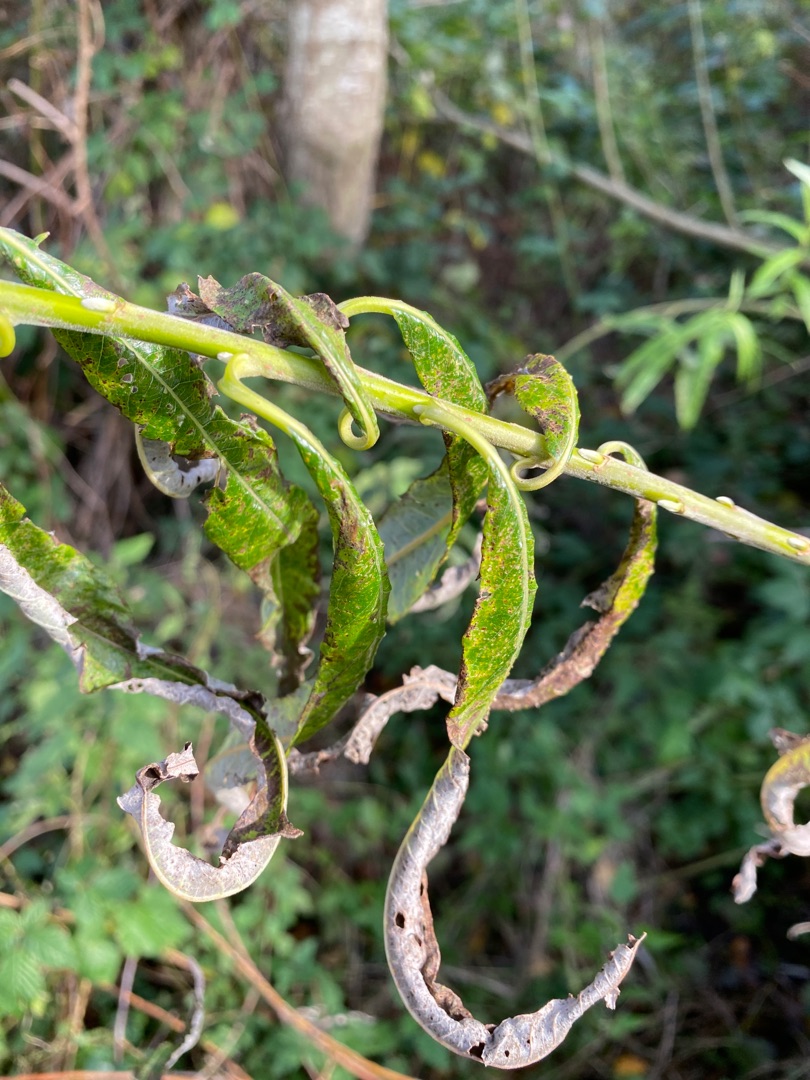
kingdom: Plantae
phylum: Tracheophyta
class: Magnoliopsida
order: Malpighiales
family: Salicaceae
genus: Salix
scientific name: Salix viminalis
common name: Bånd-pil
